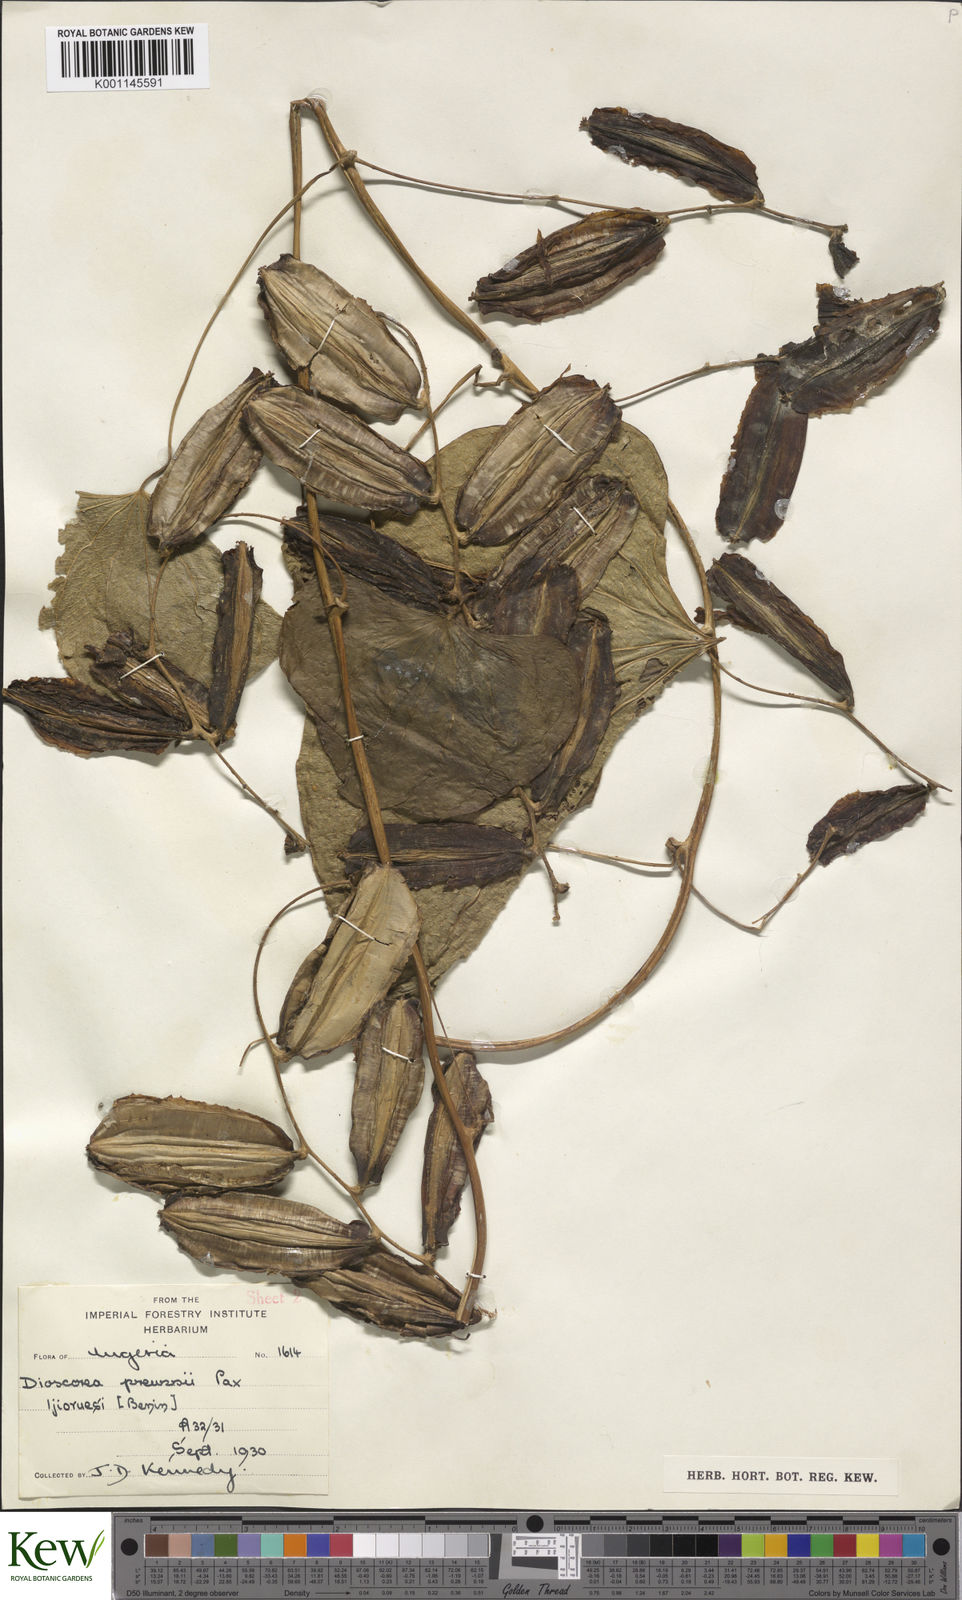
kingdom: Plantae
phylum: Tracheophyta
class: Liliopsida
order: Dioscoreales
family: Dioscoreaceae
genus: Dioscorea
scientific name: Dioscorea preussii
